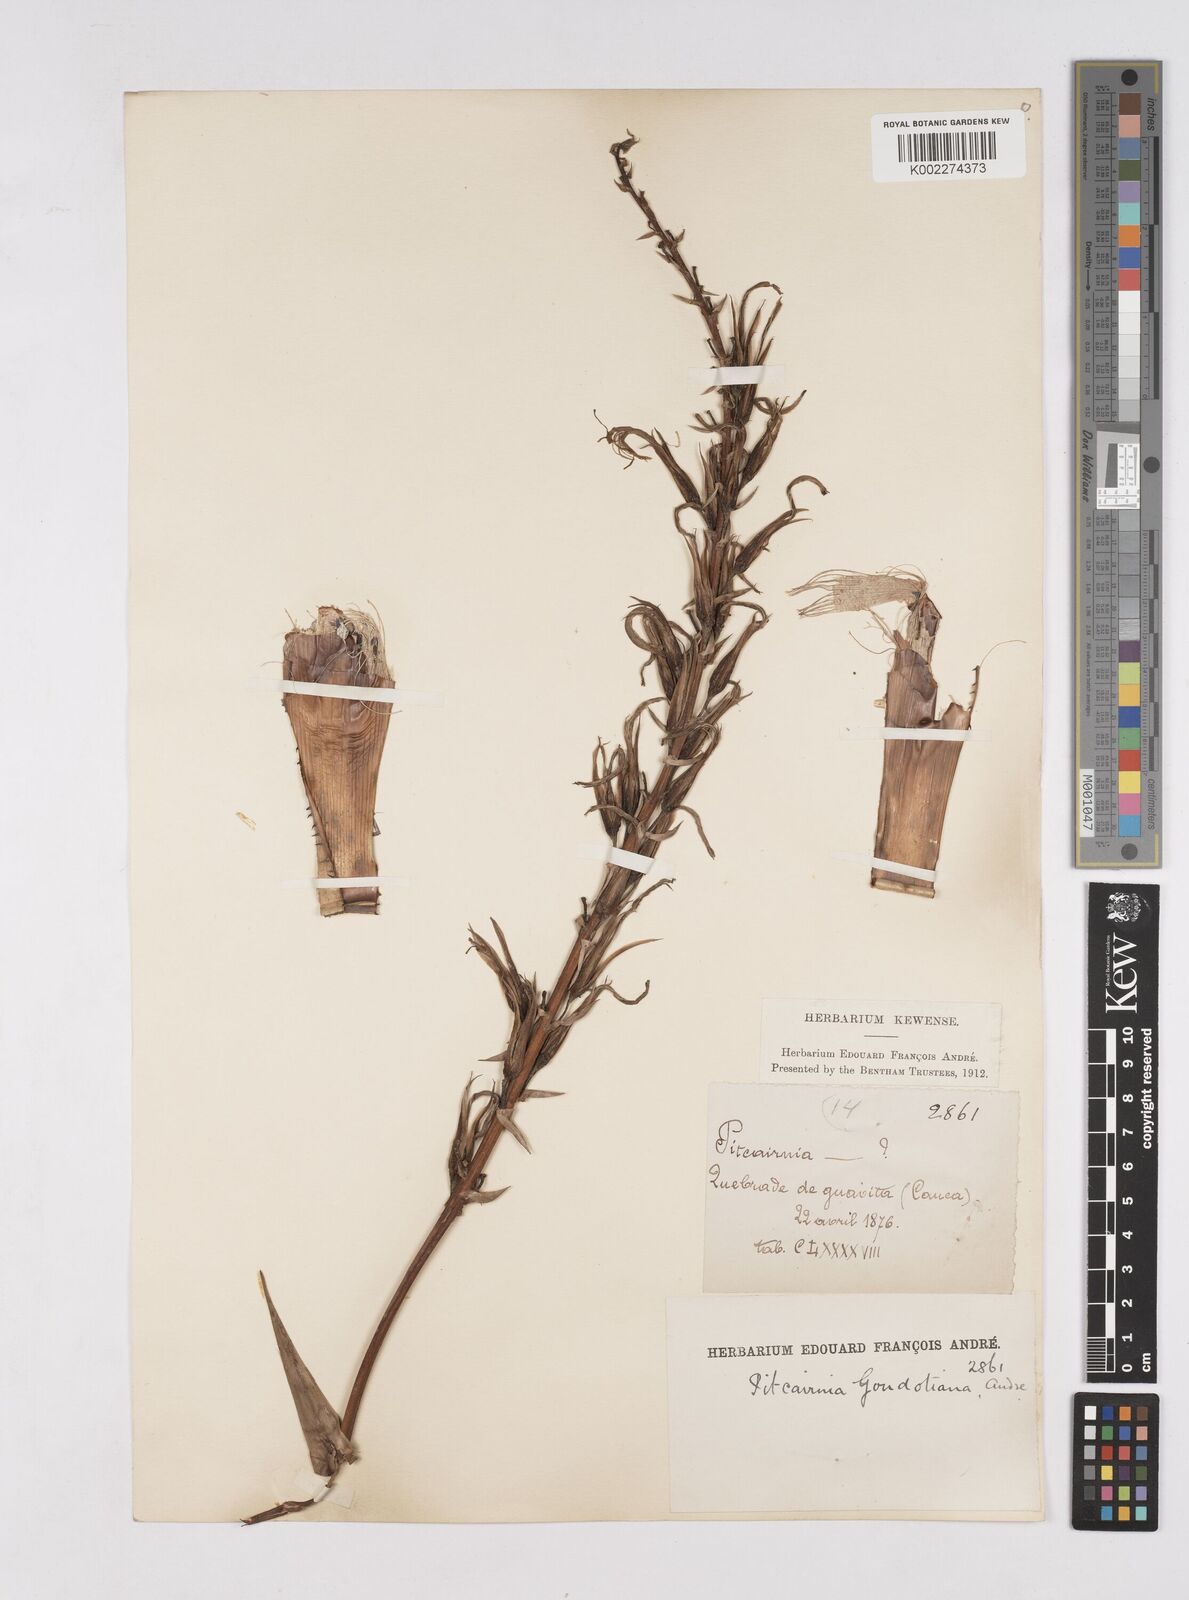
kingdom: Plantae
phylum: Tracheophyta
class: Liliopsida
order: Poales
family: Bromeliaceae
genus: Pitcairnia
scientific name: Pitcairnia megasepala
